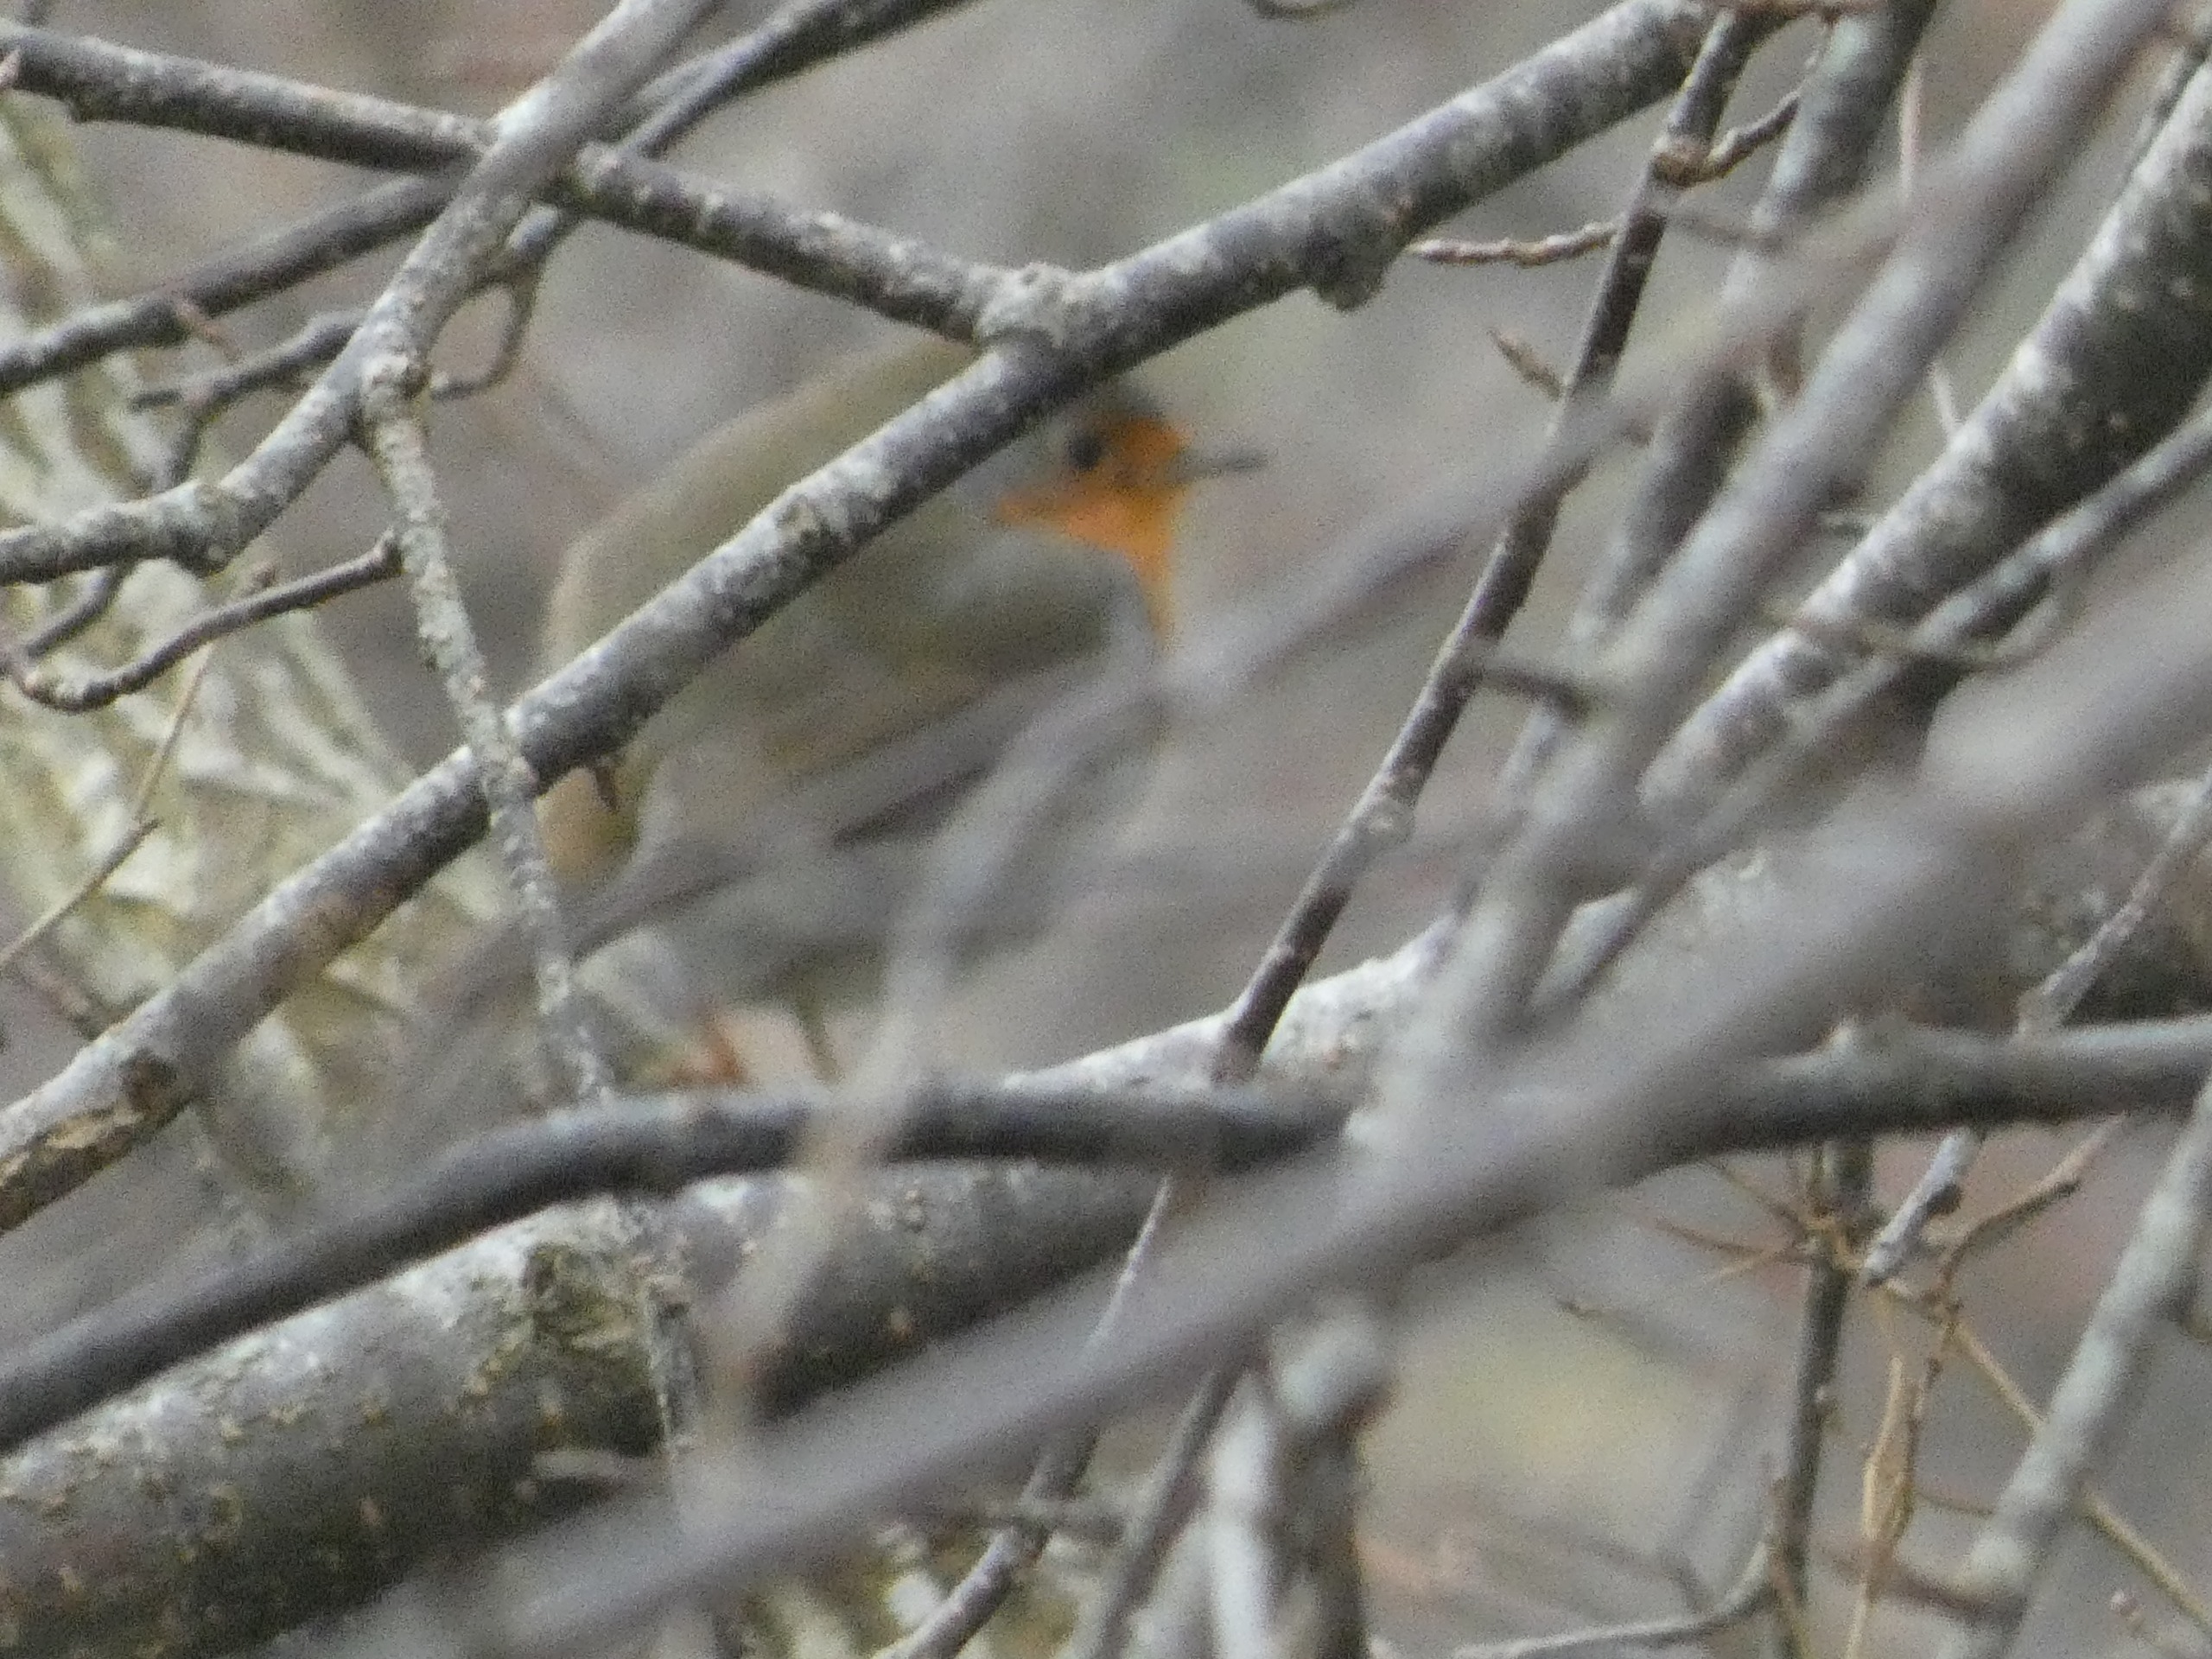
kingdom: Animalia
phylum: Chordata
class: Aves
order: Passeriformes
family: Muscicapidae
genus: Erithacus
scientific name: Erithacus rubecula
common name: Rødhals/rødkælk
